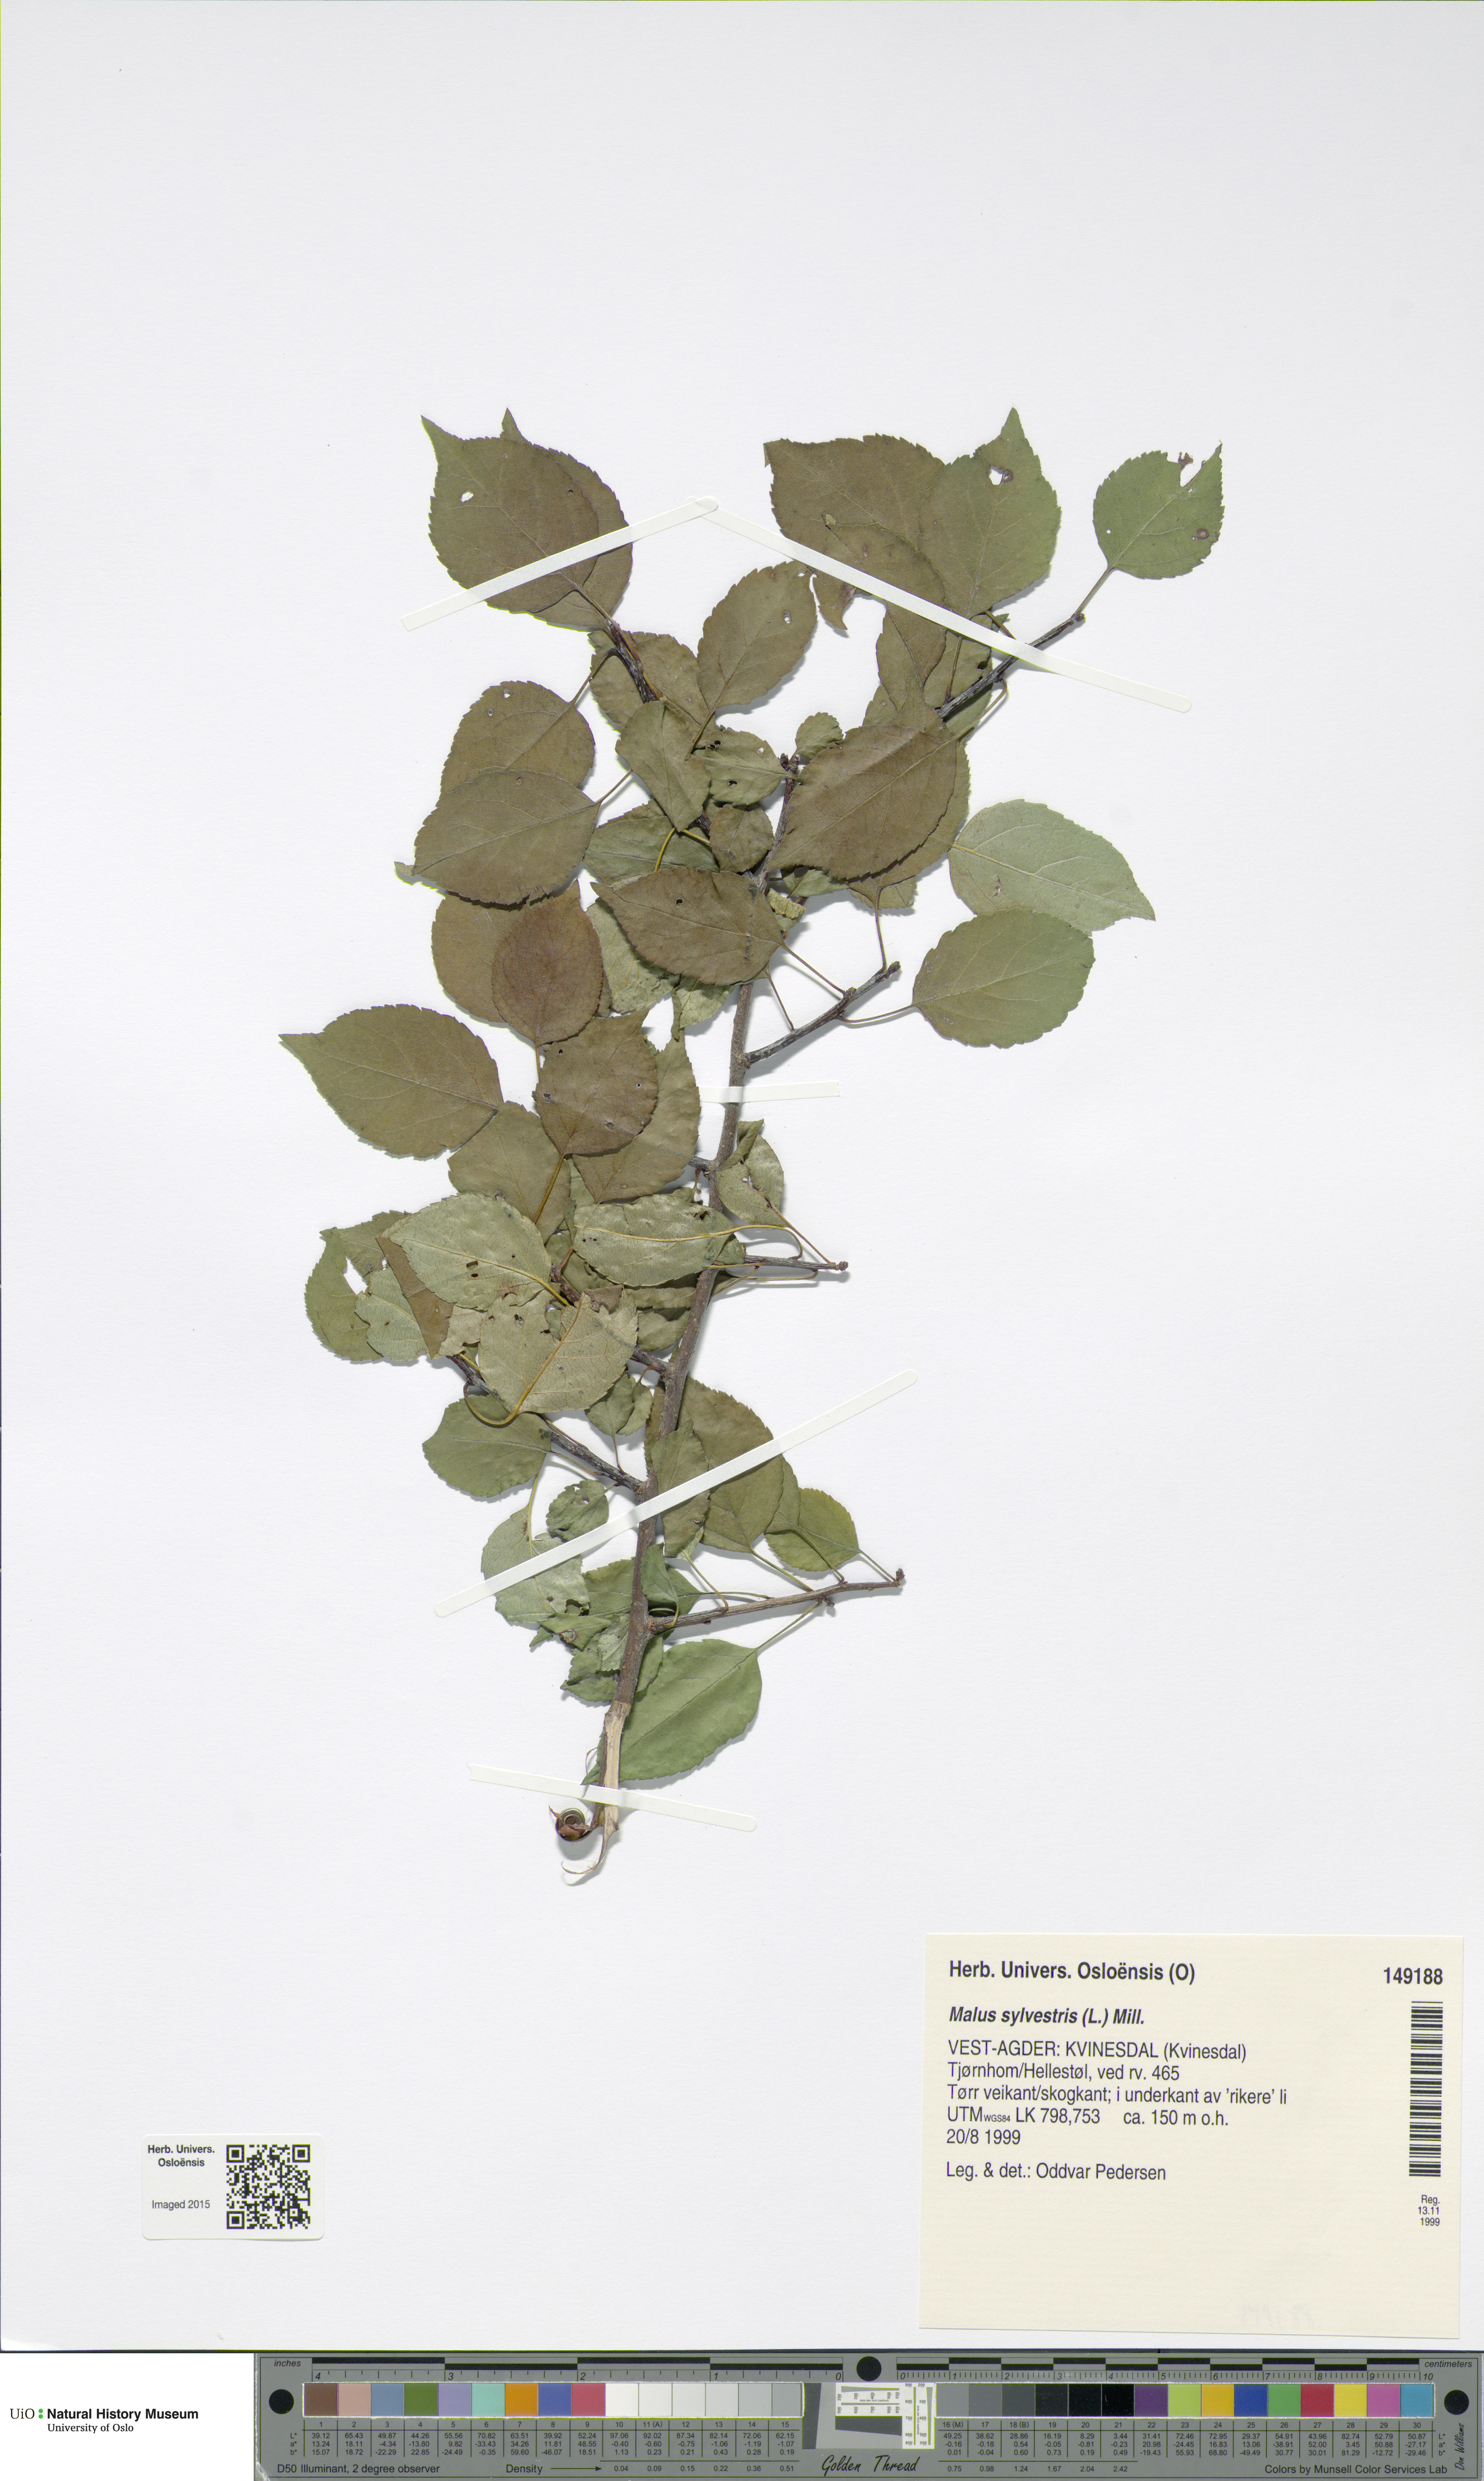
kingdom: Plantae
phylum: Tracheophyta
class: Magnoliopsida
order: Rosales
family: Rosaceae
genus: Malus
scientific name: Malus sylvestris
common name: Crab apple
